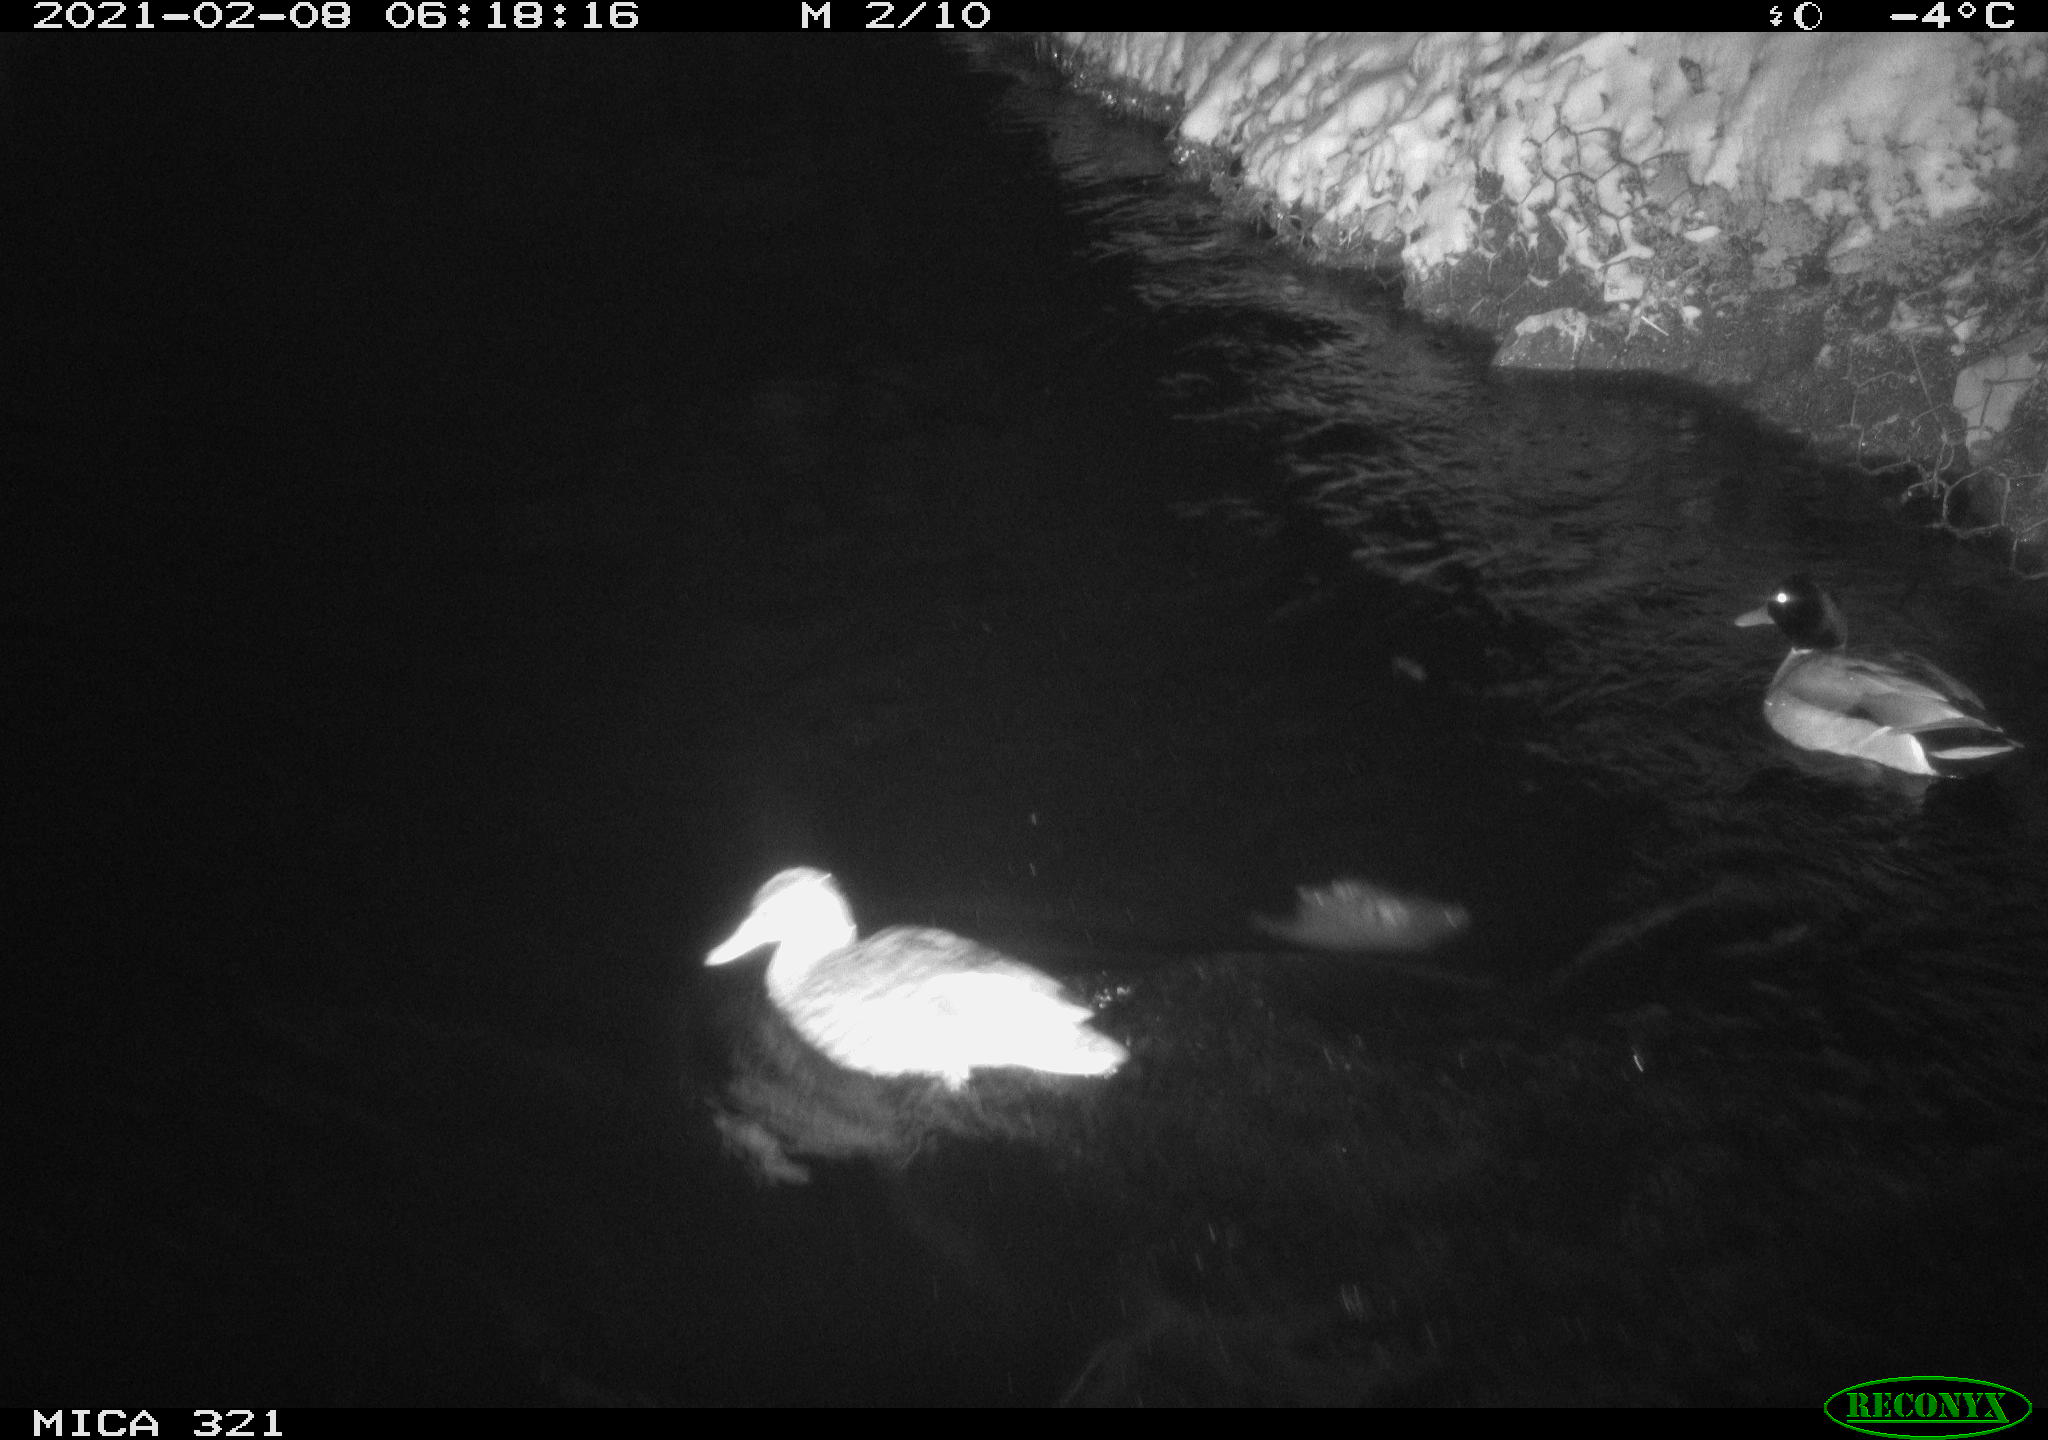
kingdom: Animalia
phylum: Chordata
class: Aves
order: Anseriformes
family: Anatidae
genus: Anas
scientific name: Anas platyrhynchos
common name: Mallard
